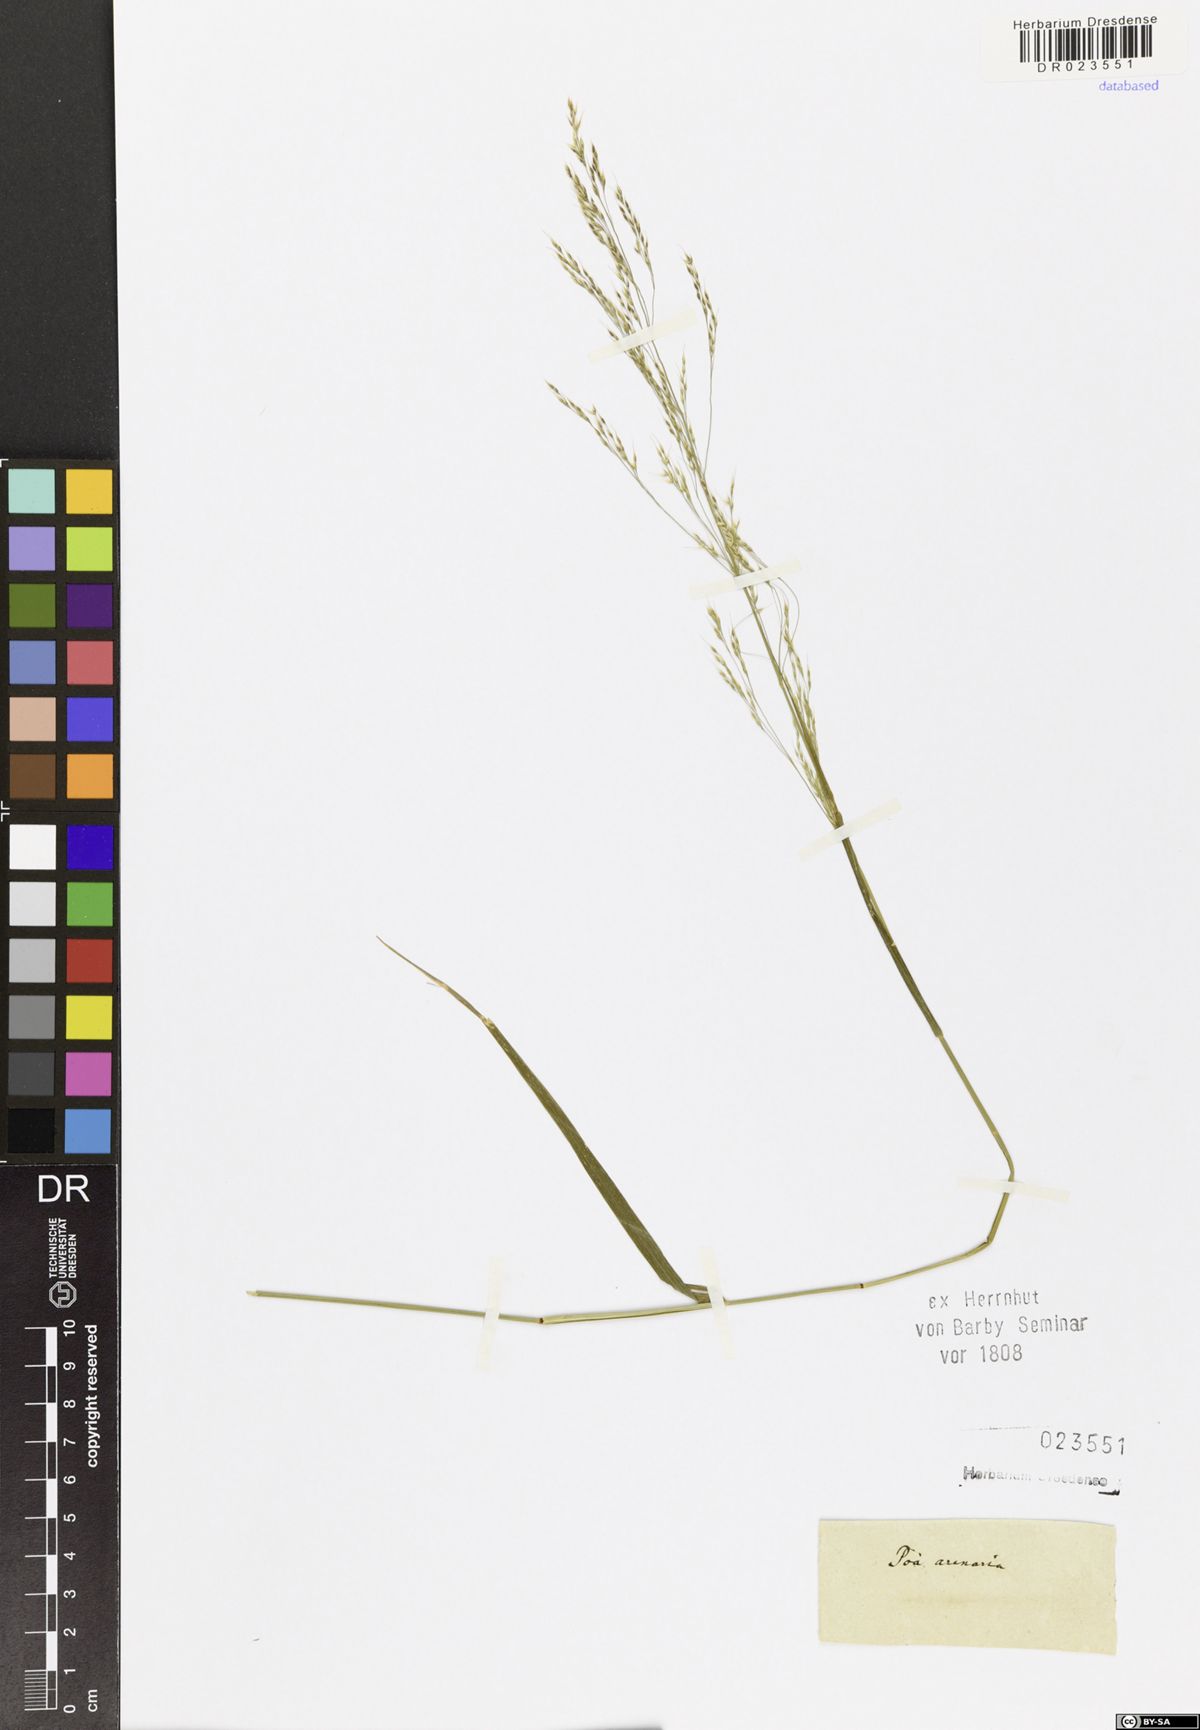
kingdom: Plantae
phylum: Tracheophyta
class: Liliopsida
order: Poales
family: Poaceae
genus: Puccinellia
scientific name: Puccinellia maritima
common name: Common saltmarsh grass
